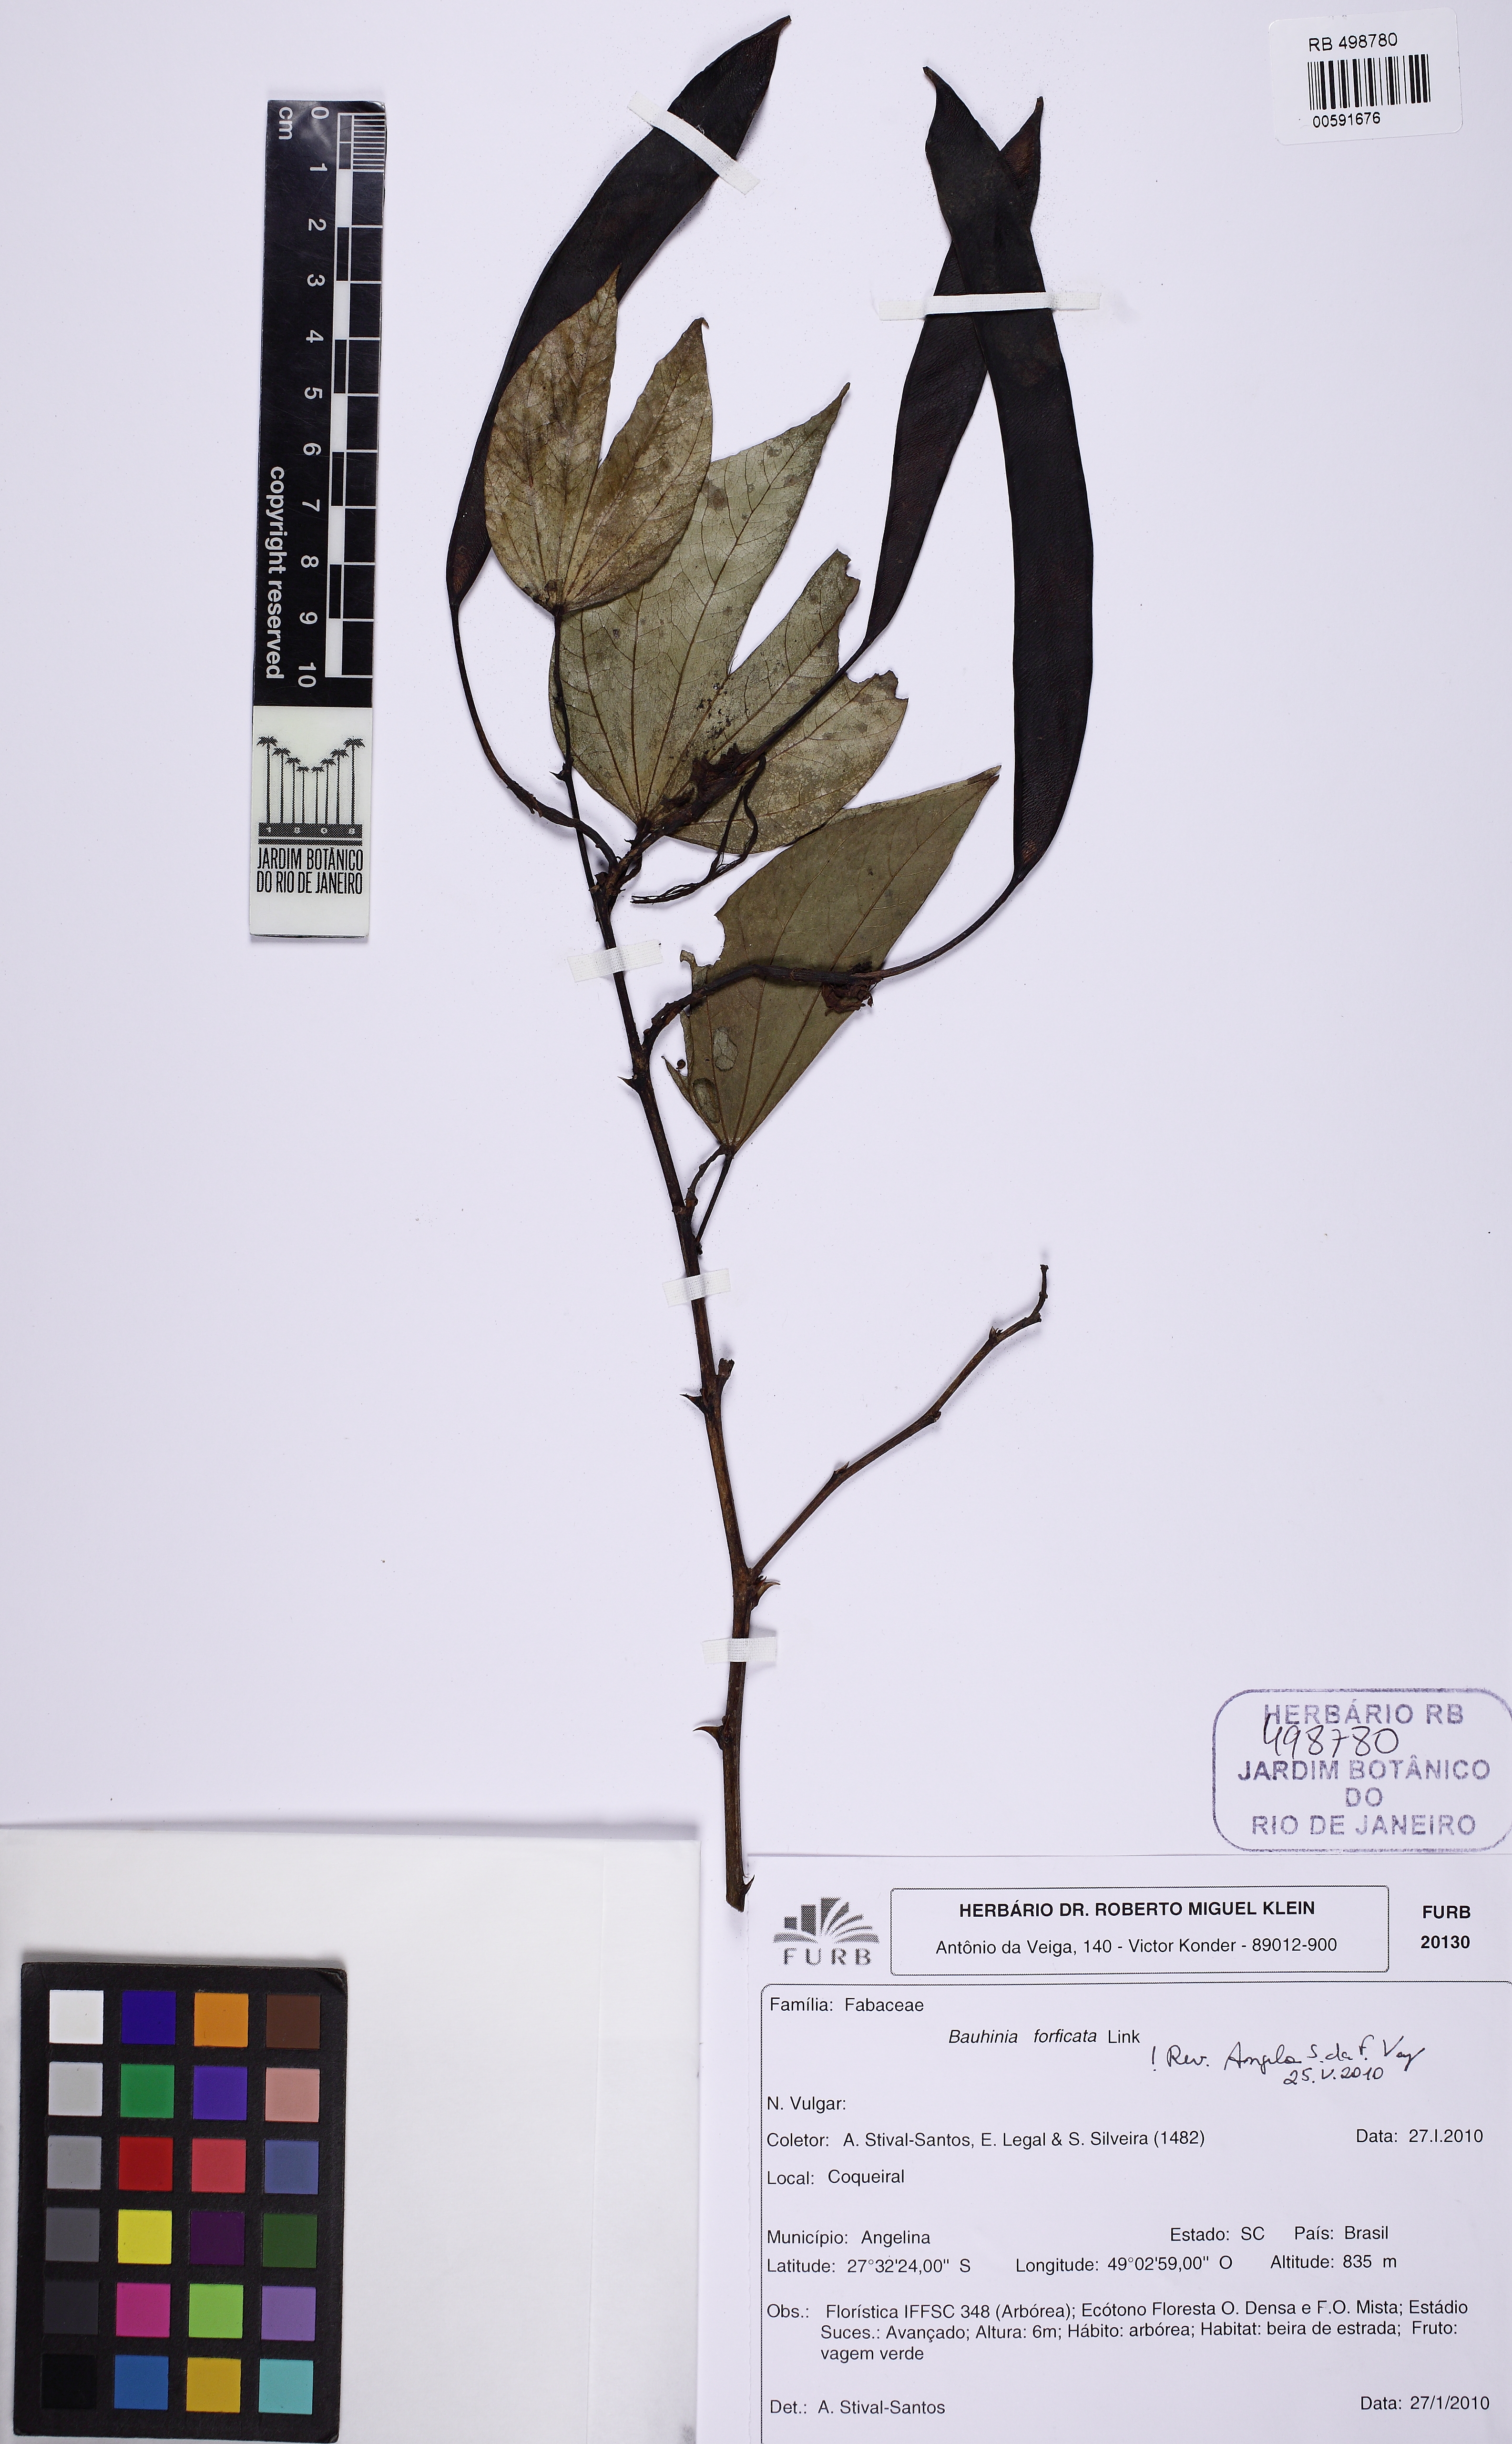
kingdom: Plantae
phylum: Tracheophyta
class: Magnoliopsida
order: Fabales
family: Fabaceae
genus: Bauhinia
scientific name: Bauhinia forficata
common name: Orchid tree
